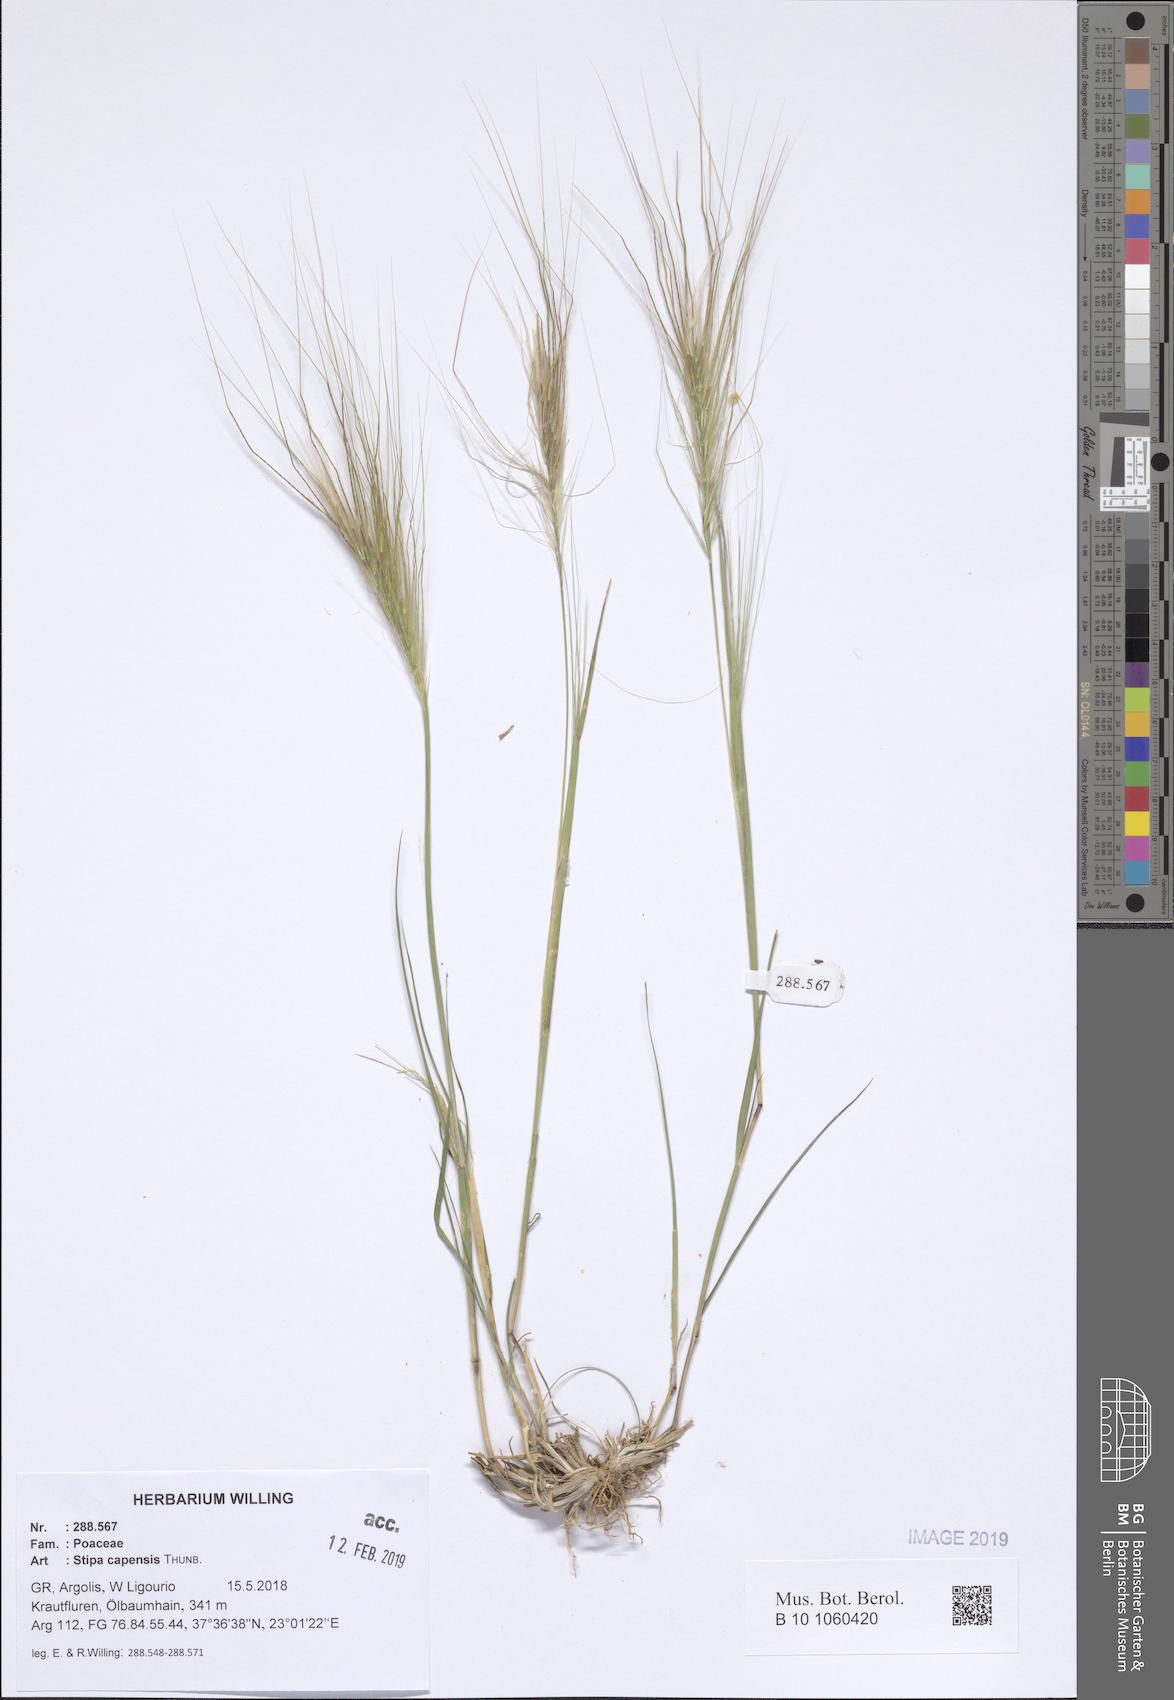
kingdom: Plantae
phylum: Tracheophyta
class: Liliopsida
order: Poales
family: Poaceae
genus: Stipellula
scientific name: Stipellula capensis
